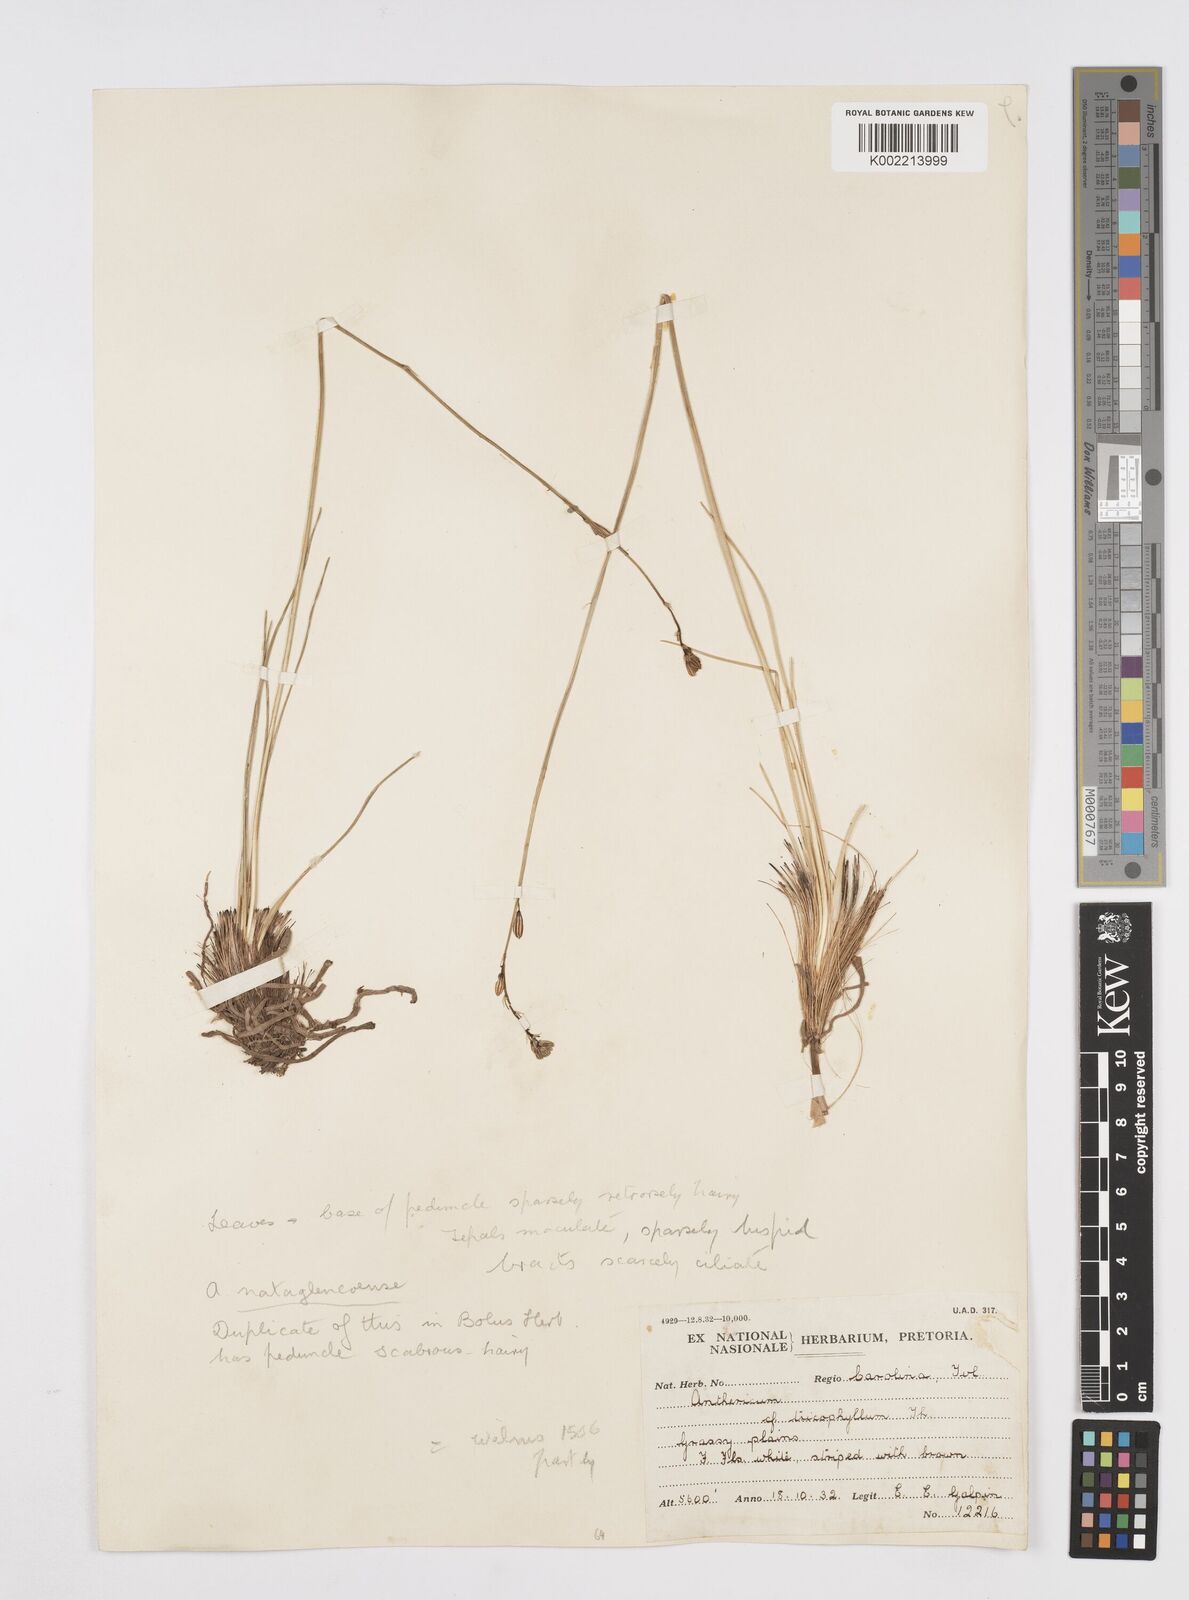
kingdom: Plantae
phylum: Tracheophyta
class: Liliopsida
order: Asparagales
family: Asphodelaceae
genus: Trachyandra
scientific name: Trachyandra asperata
